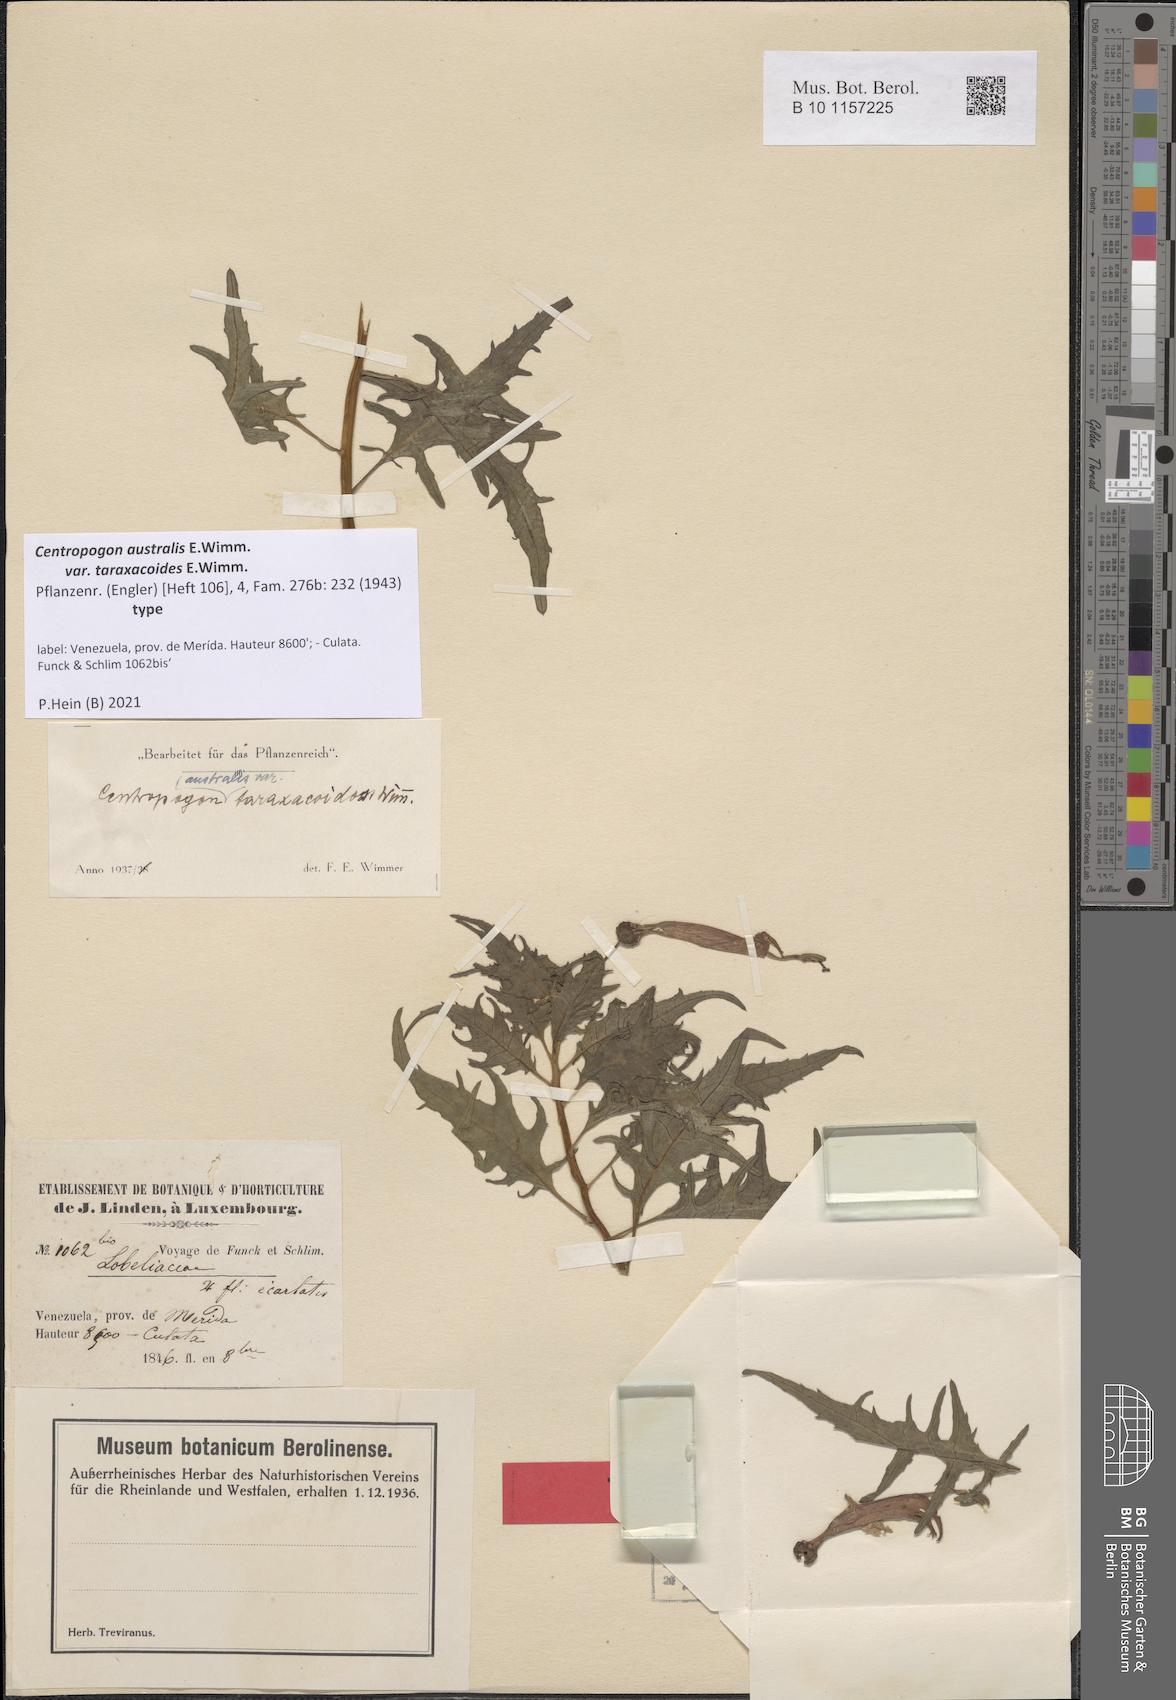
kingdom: Plantae
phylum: Tracheophyta
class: Magnoliopsida
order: Asterales
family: Campanulaceae
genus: Centropogon
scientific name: Centropogon australis
